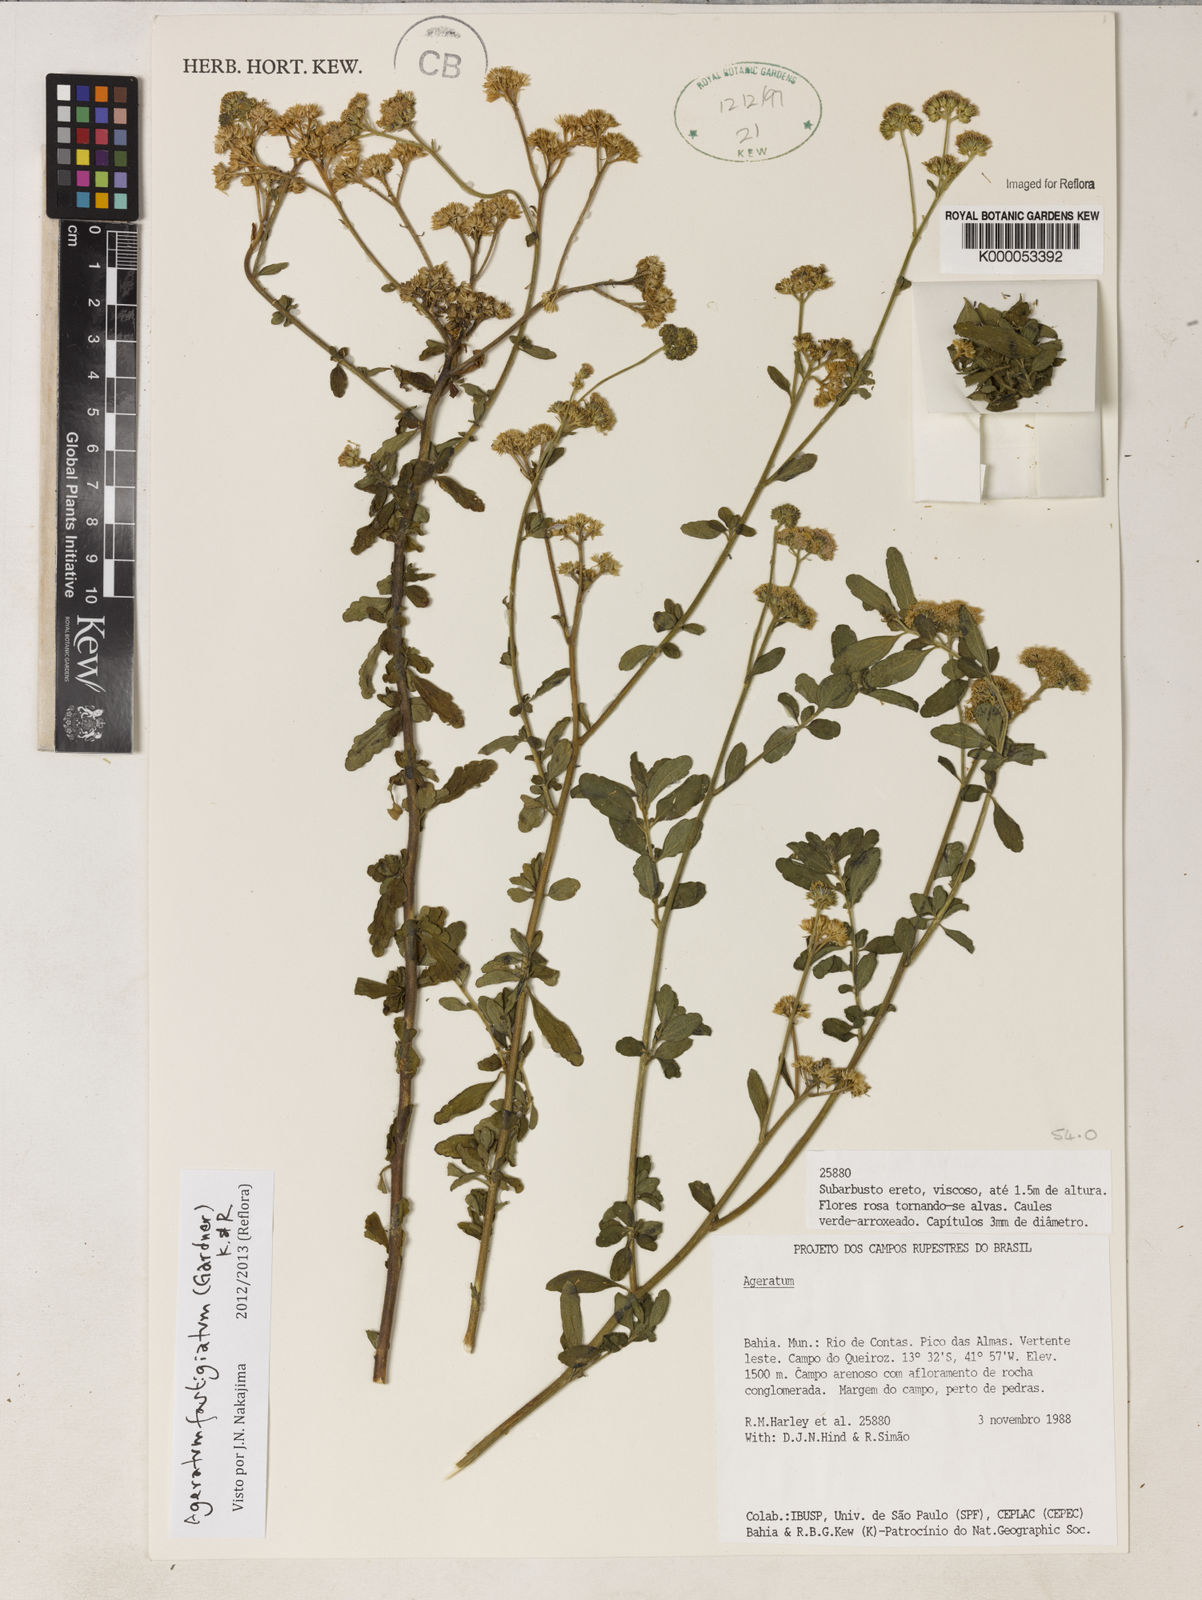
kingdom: Plantae
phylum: Tracheophyta
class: Magnoliopsida
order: Asterales
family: Asteraceae
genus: Ageratum
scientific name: Ageratum fastigiatum
